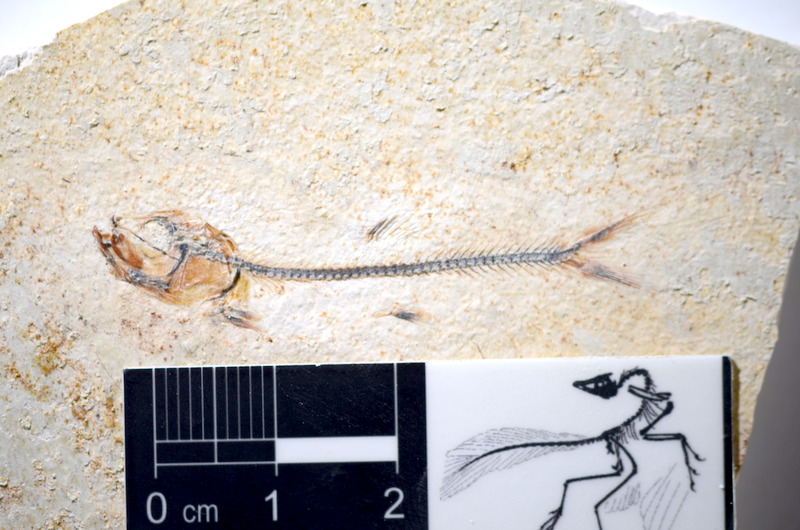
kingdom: Animalia
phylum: Chordata
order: Salmoniformes
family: Orthogonikleithridae
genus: Orthogonikleithrus
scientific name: Orthogonikleithrus hoelli
